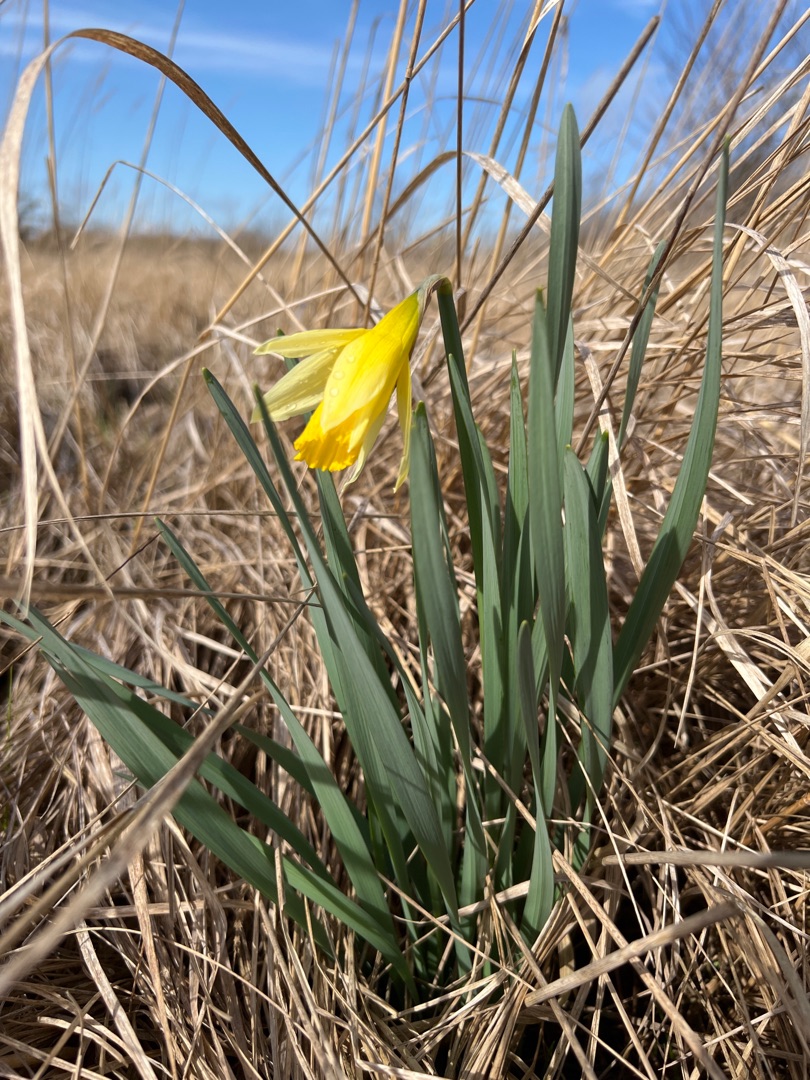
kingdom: Plantae
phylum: Tracheophyta
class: Liliopsida
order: Asparagales
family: Amaryllidaceae
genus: Narcissus
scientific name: Narcissus pseudonarcissus
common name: Påskelilje
